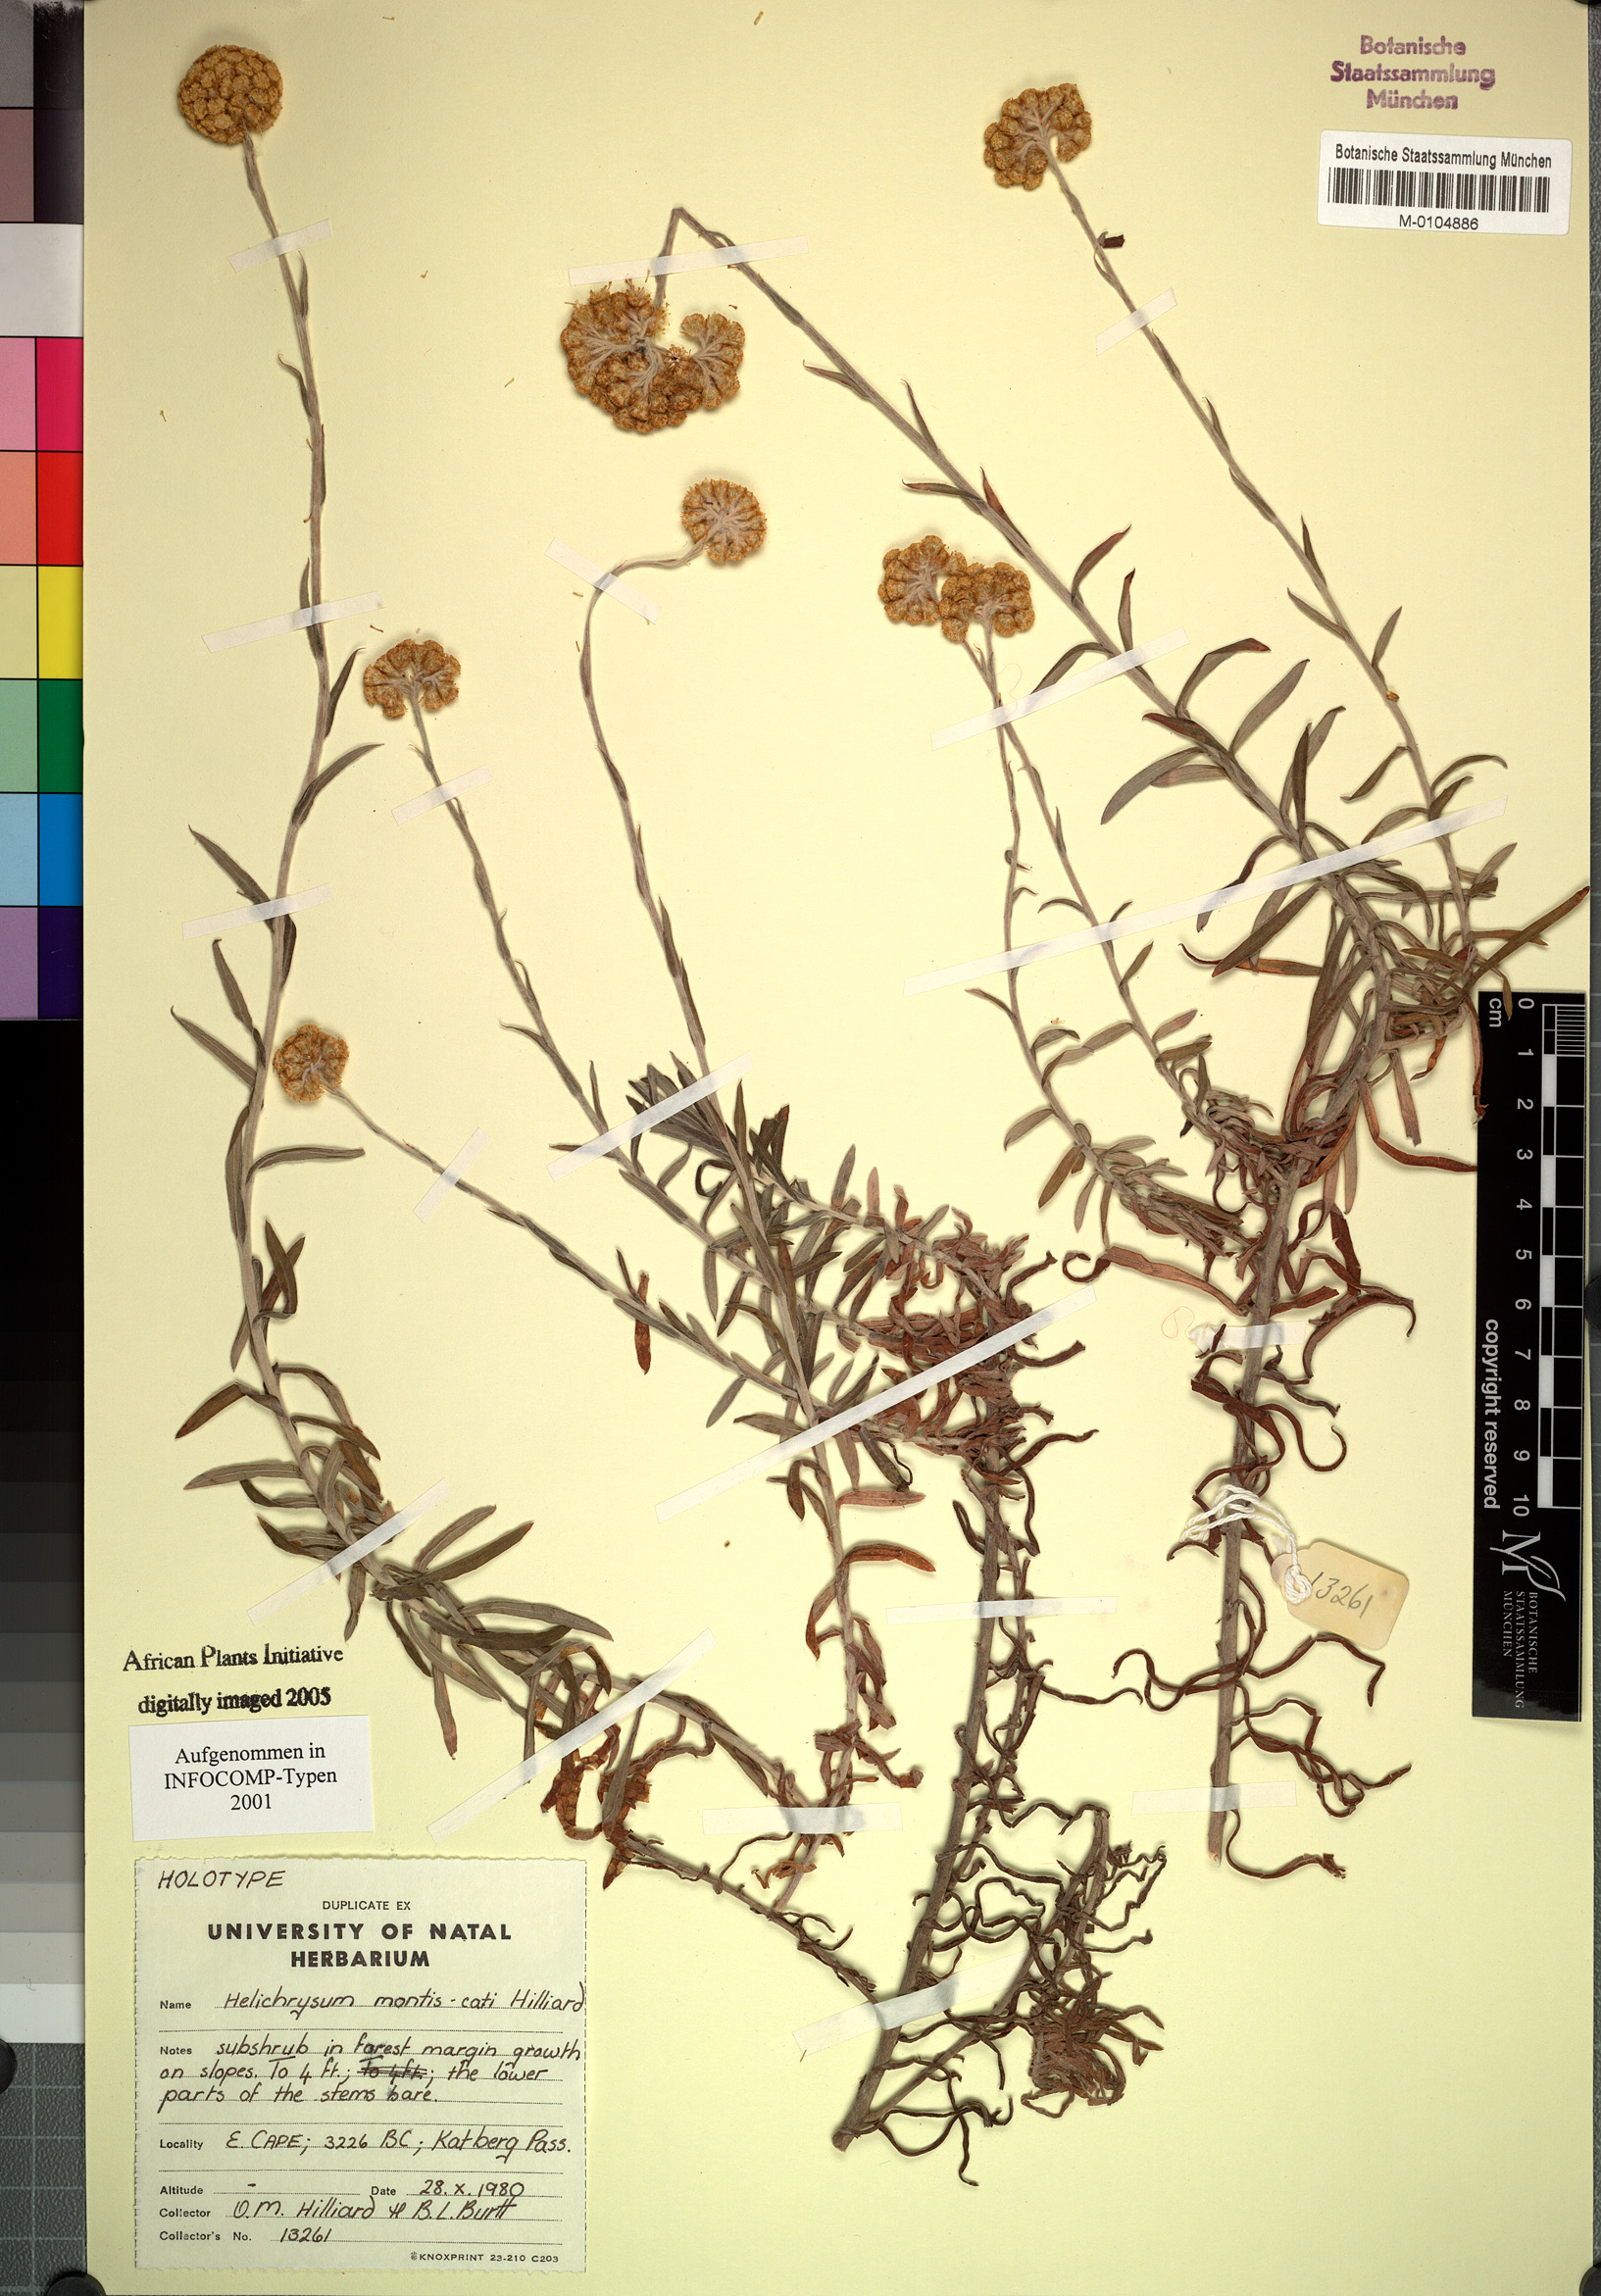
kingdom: Plantae
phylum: Tracheophyta
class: Magnoliopsida
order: Asterales
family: Asteraceae
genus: Helichrysum
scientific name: Helichrysum montis-cati
